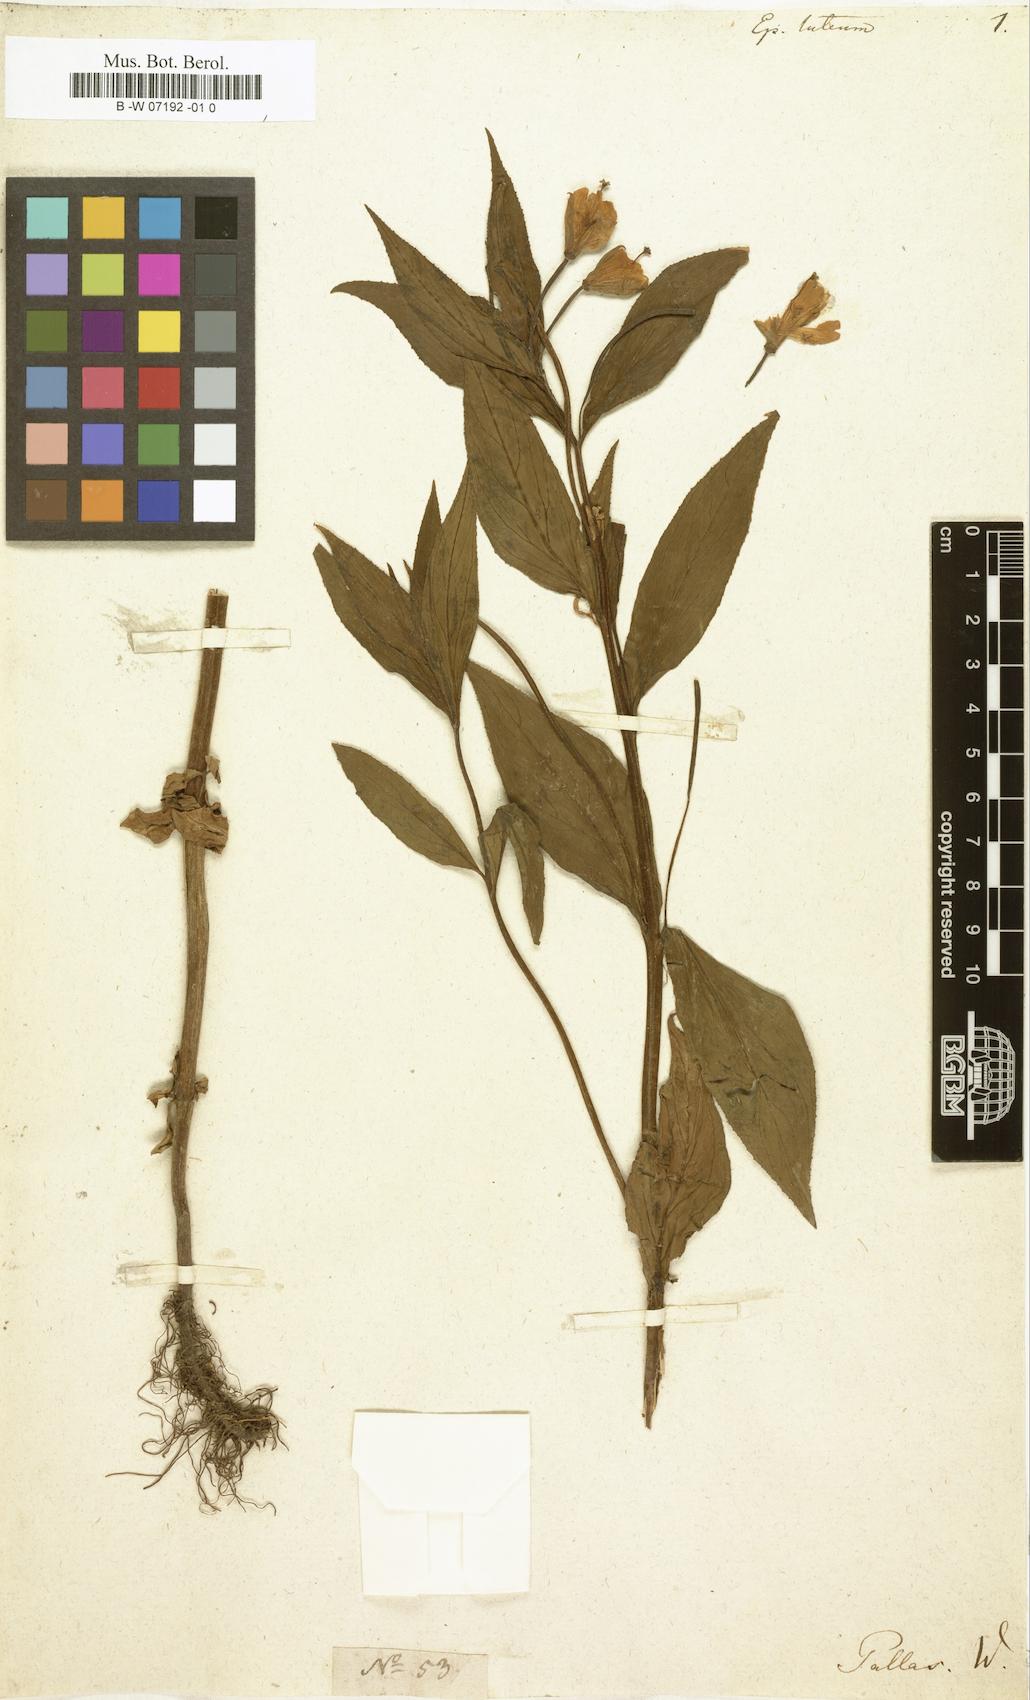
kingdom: Plantae
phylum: Tracheophyta
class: Magnoliopsida
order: Myrtales
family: Onagraceae
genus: Epilobium
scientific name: Epilobium luteum
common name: Yellow willowherb
